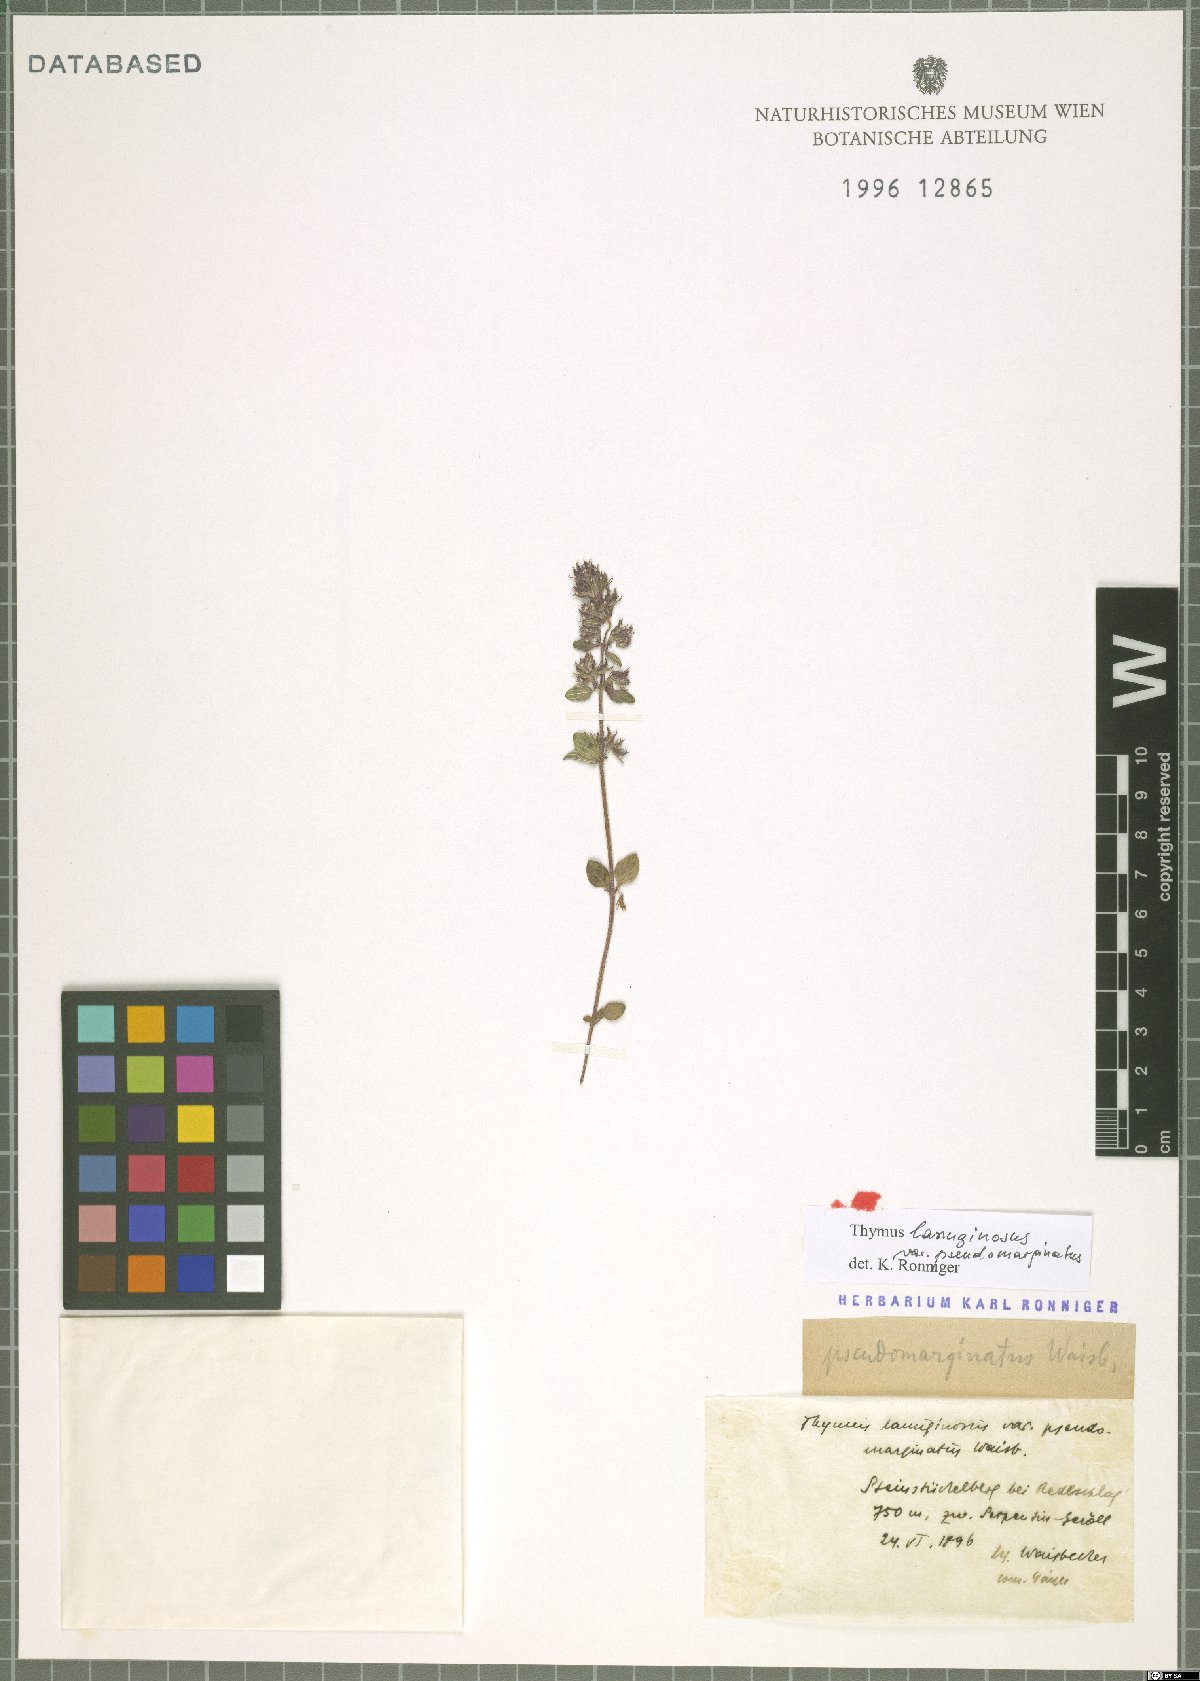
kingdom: Plantae
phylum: Tracheophyta
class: Magnoliopsida
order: Lamiales
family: Lamiaceae
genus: Thymus
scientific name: Thymus pulegioides
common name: Large thyme
